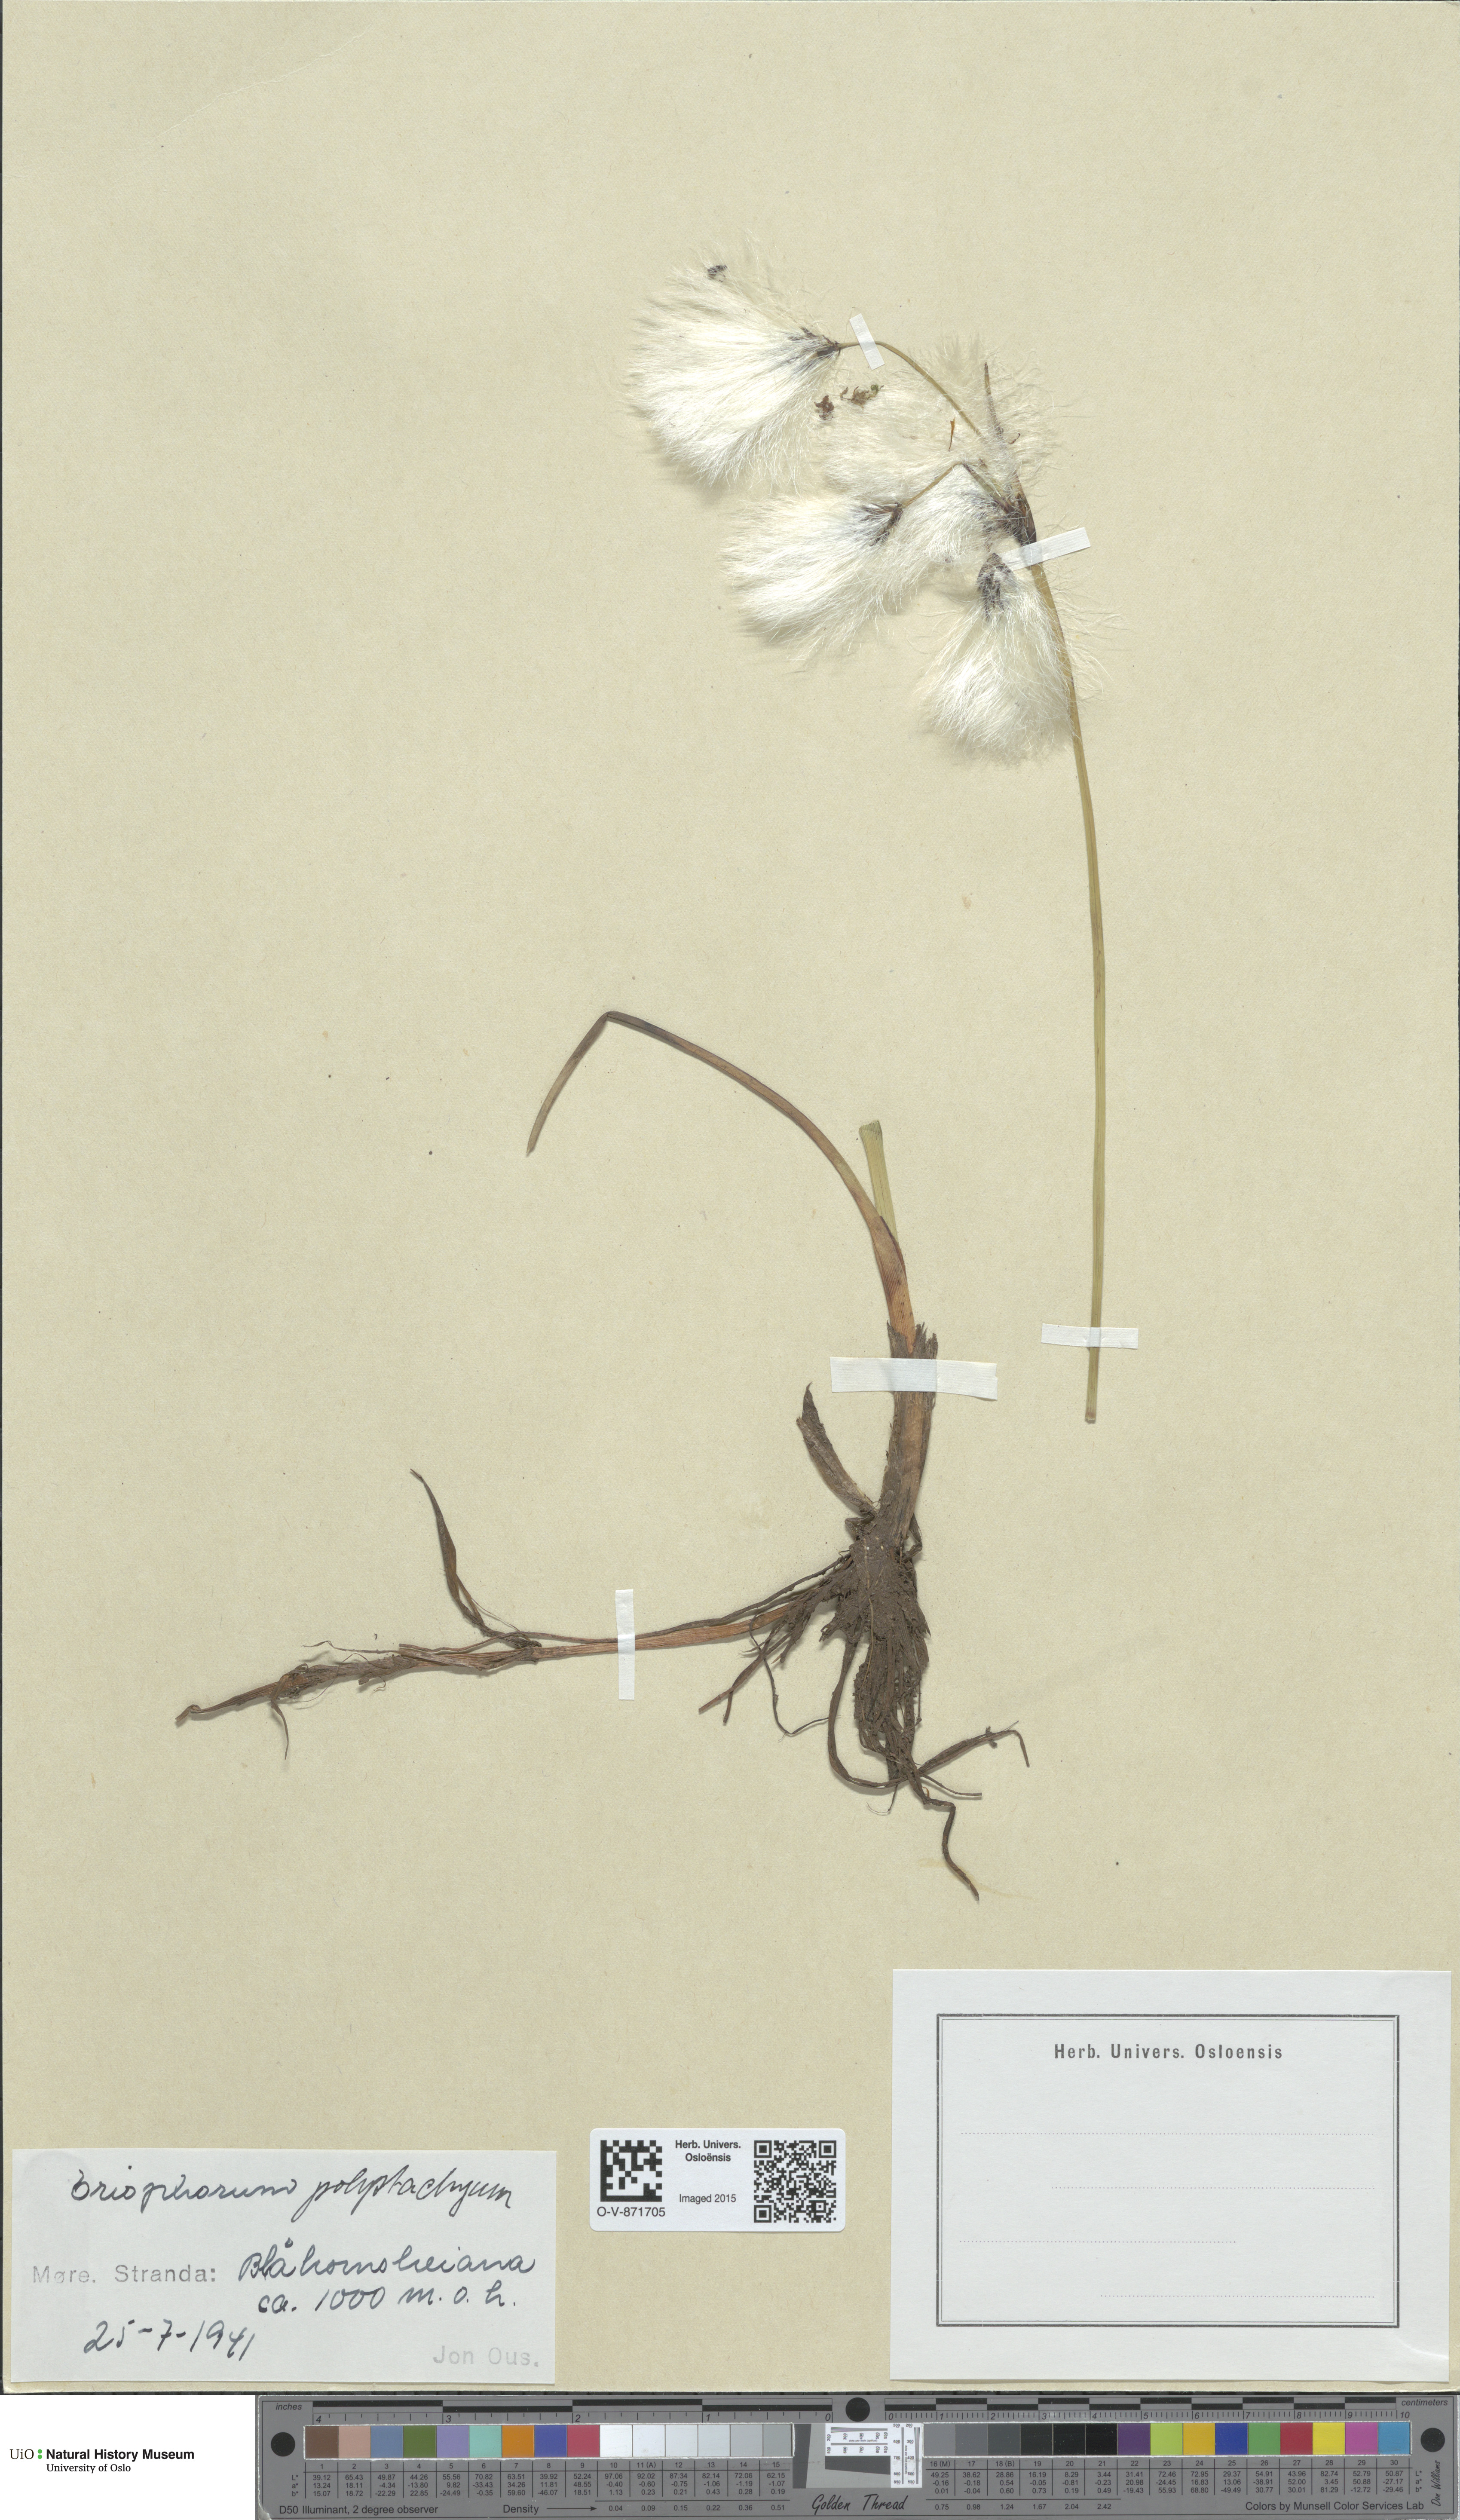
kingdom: Plantae
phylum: Tracheophyta
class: Liliopsida
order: Poales
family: Cyperaceae
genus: Eriophorum
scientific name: Eriophorum angustifolium
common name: Common cottongrass
